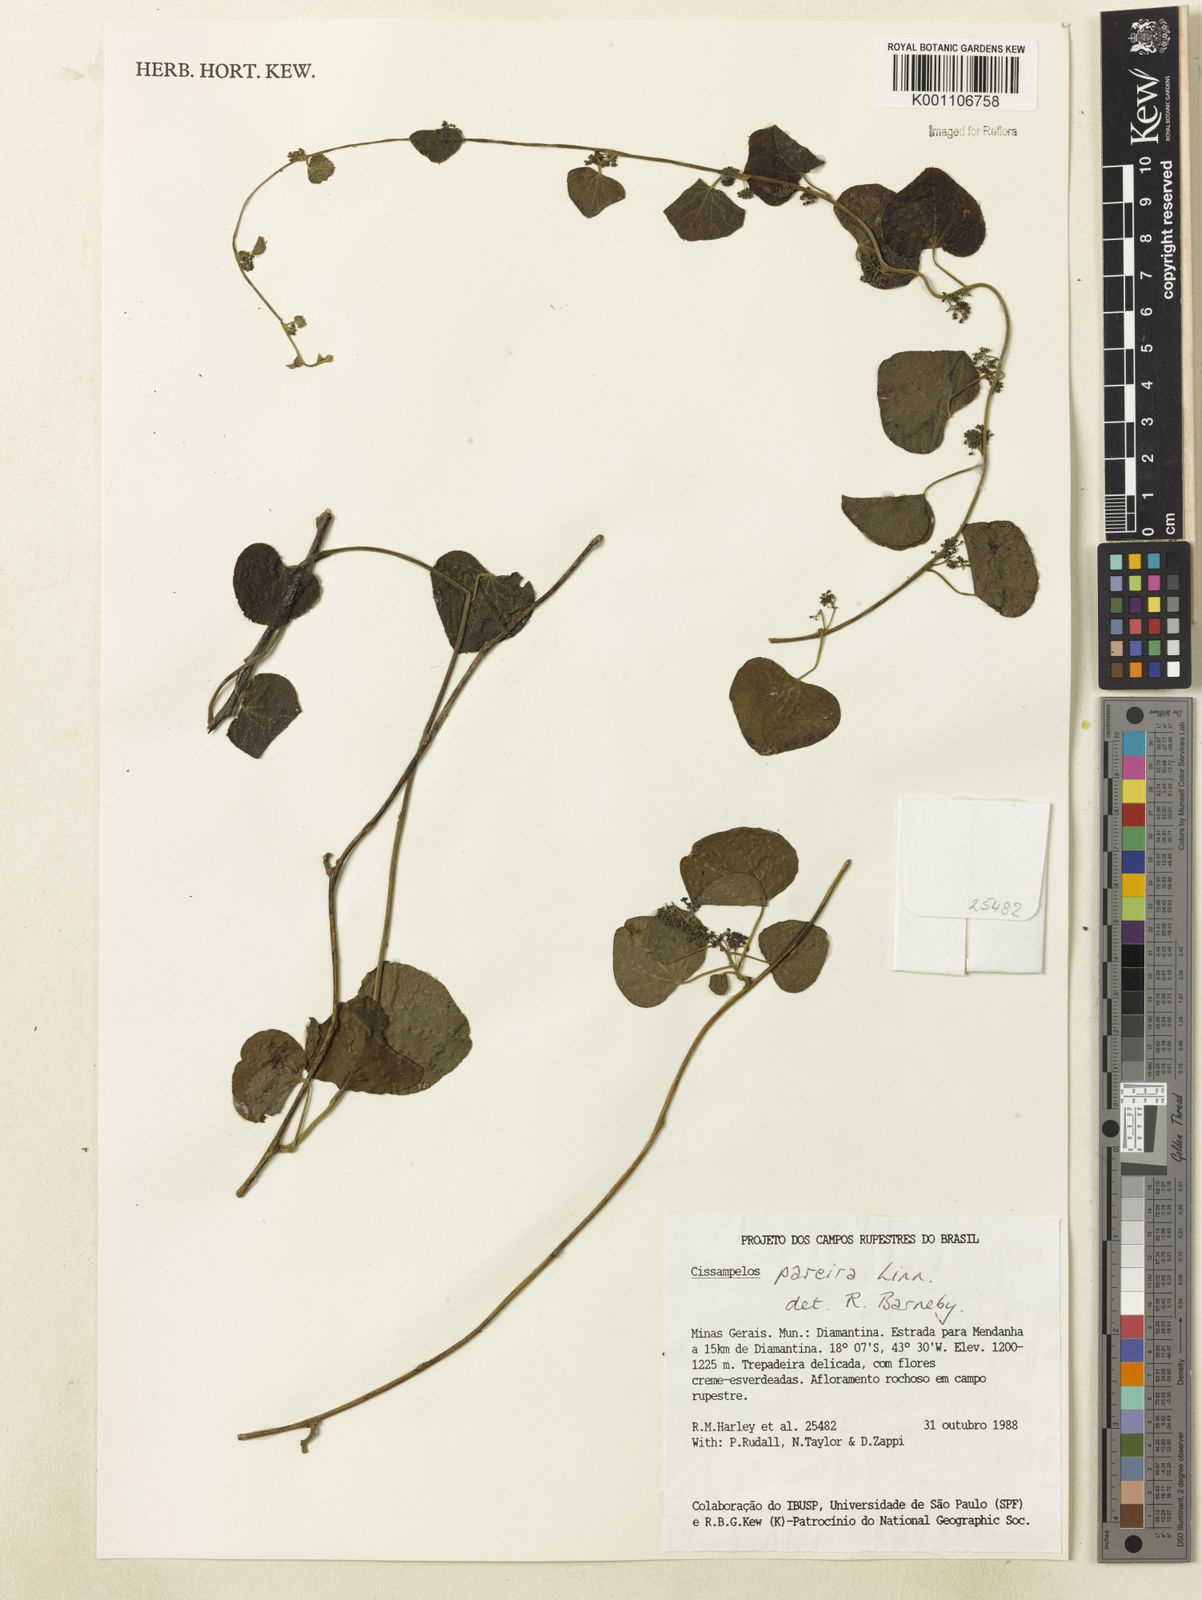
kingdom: Plantae
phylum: Tracheophyta
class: Magnoliopsida
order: Ranunculales
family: Menispermaceae
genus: Cissampelos
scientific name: Cissampelos pareira
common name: Velvetleaf
